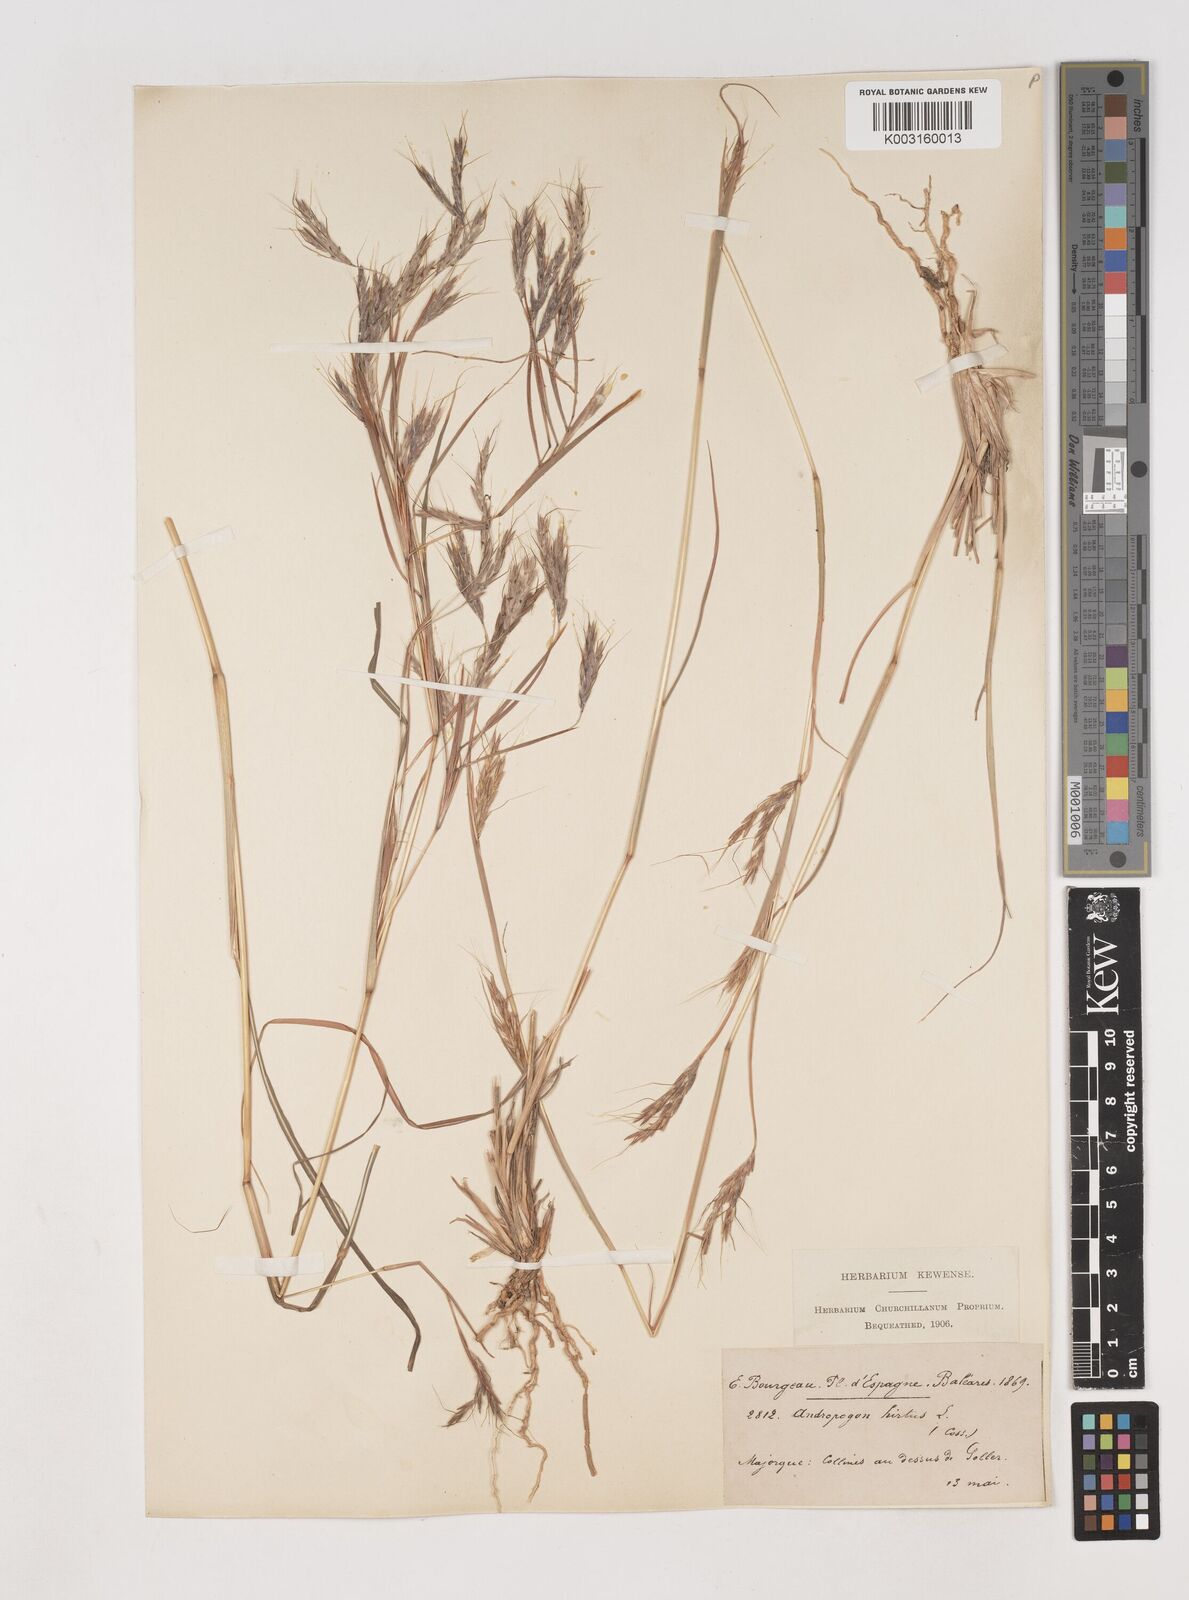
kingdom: Plantae
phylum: Tracheophyta
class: Liliopsida
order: Poales
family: Poaceae
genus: Hyparrhenia
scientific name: Hyparrhenia hirta
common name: Thatching grass
